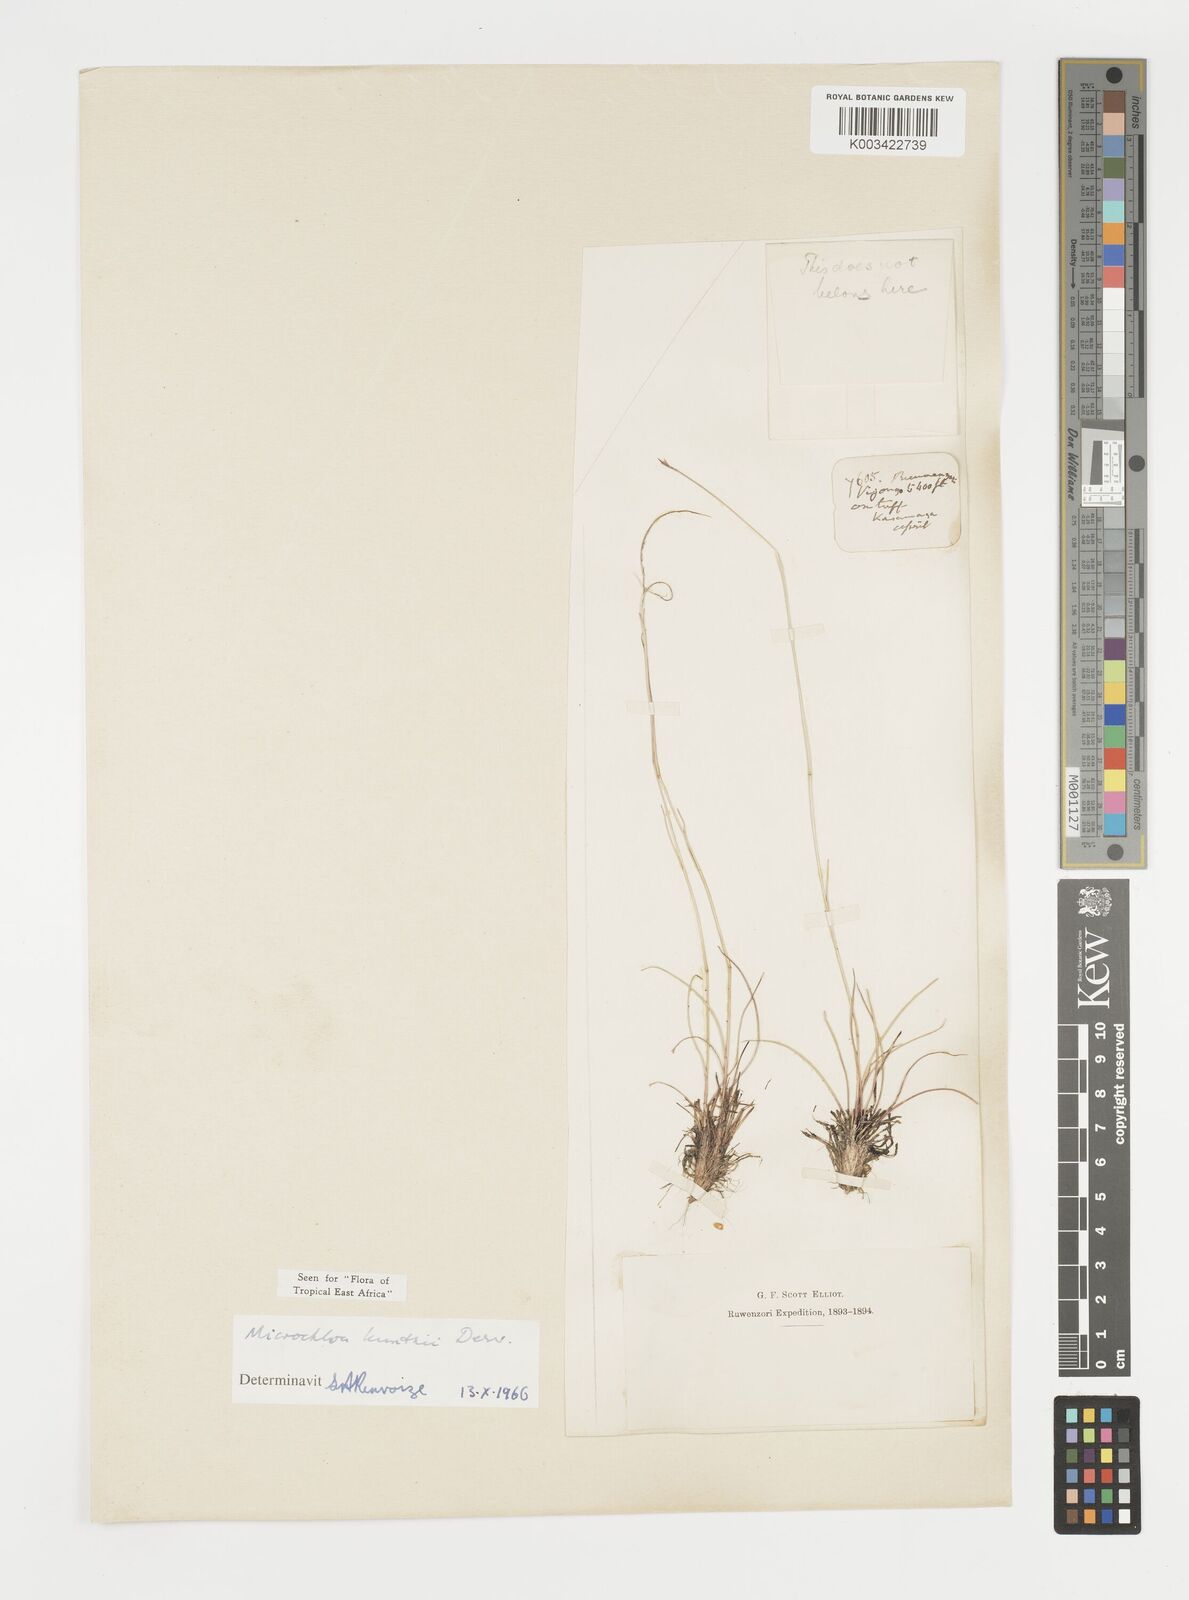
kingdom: Plantae
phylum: Tracheophyta
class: Liliopsida
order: Poales
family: Poaceae
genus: Microchloa
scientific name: Microchloa kunthii
